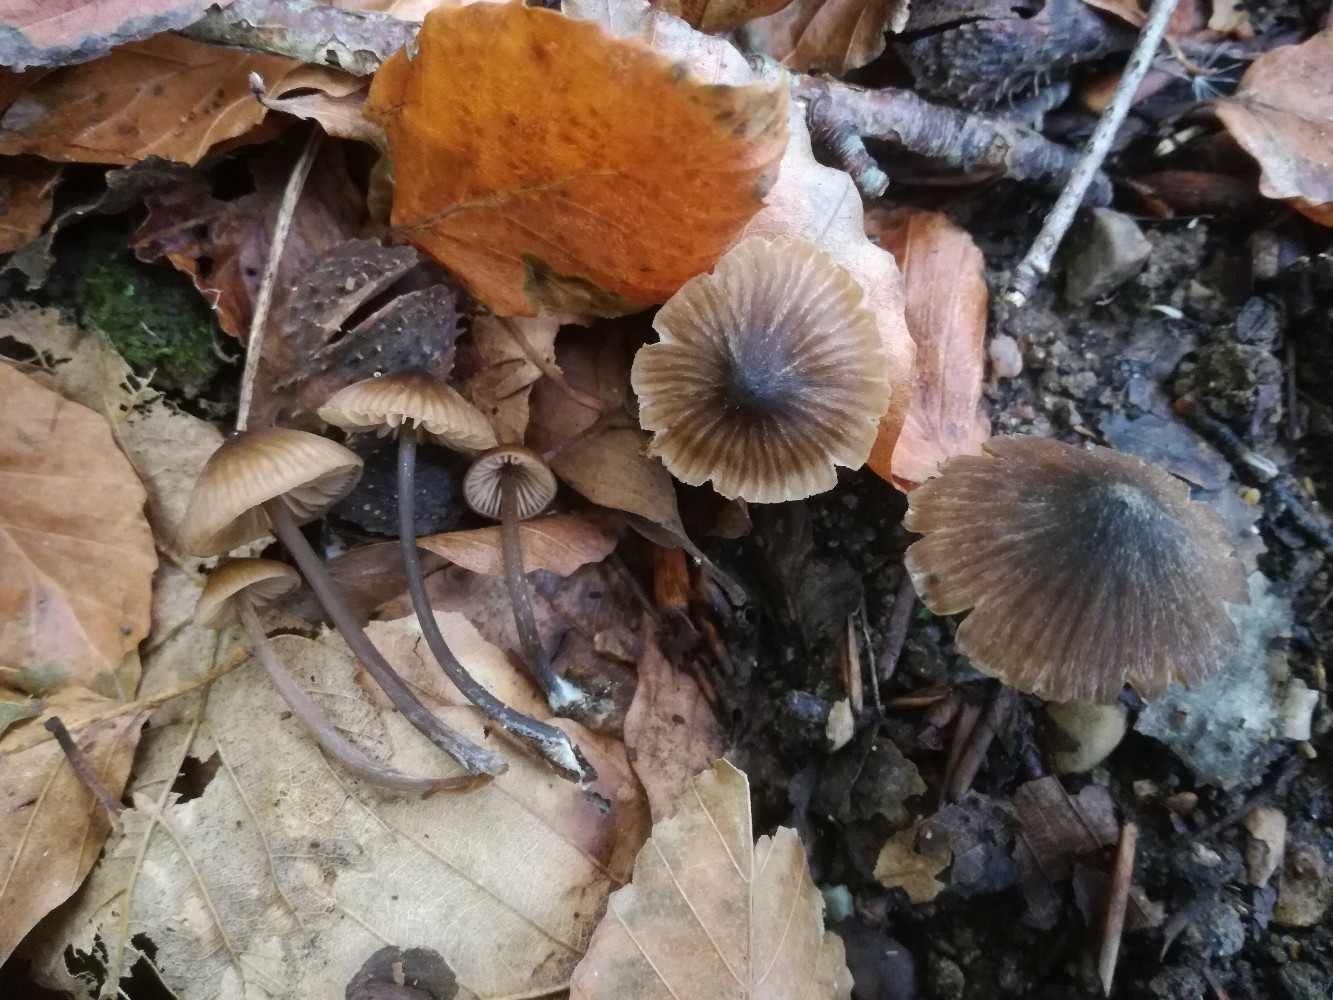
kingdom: Fungi
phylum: Basidiomycota
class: Agaricomycetes
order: Agaricales
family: Entolomataceae
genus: Entoloma
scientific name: Entoloma sanvitalense
